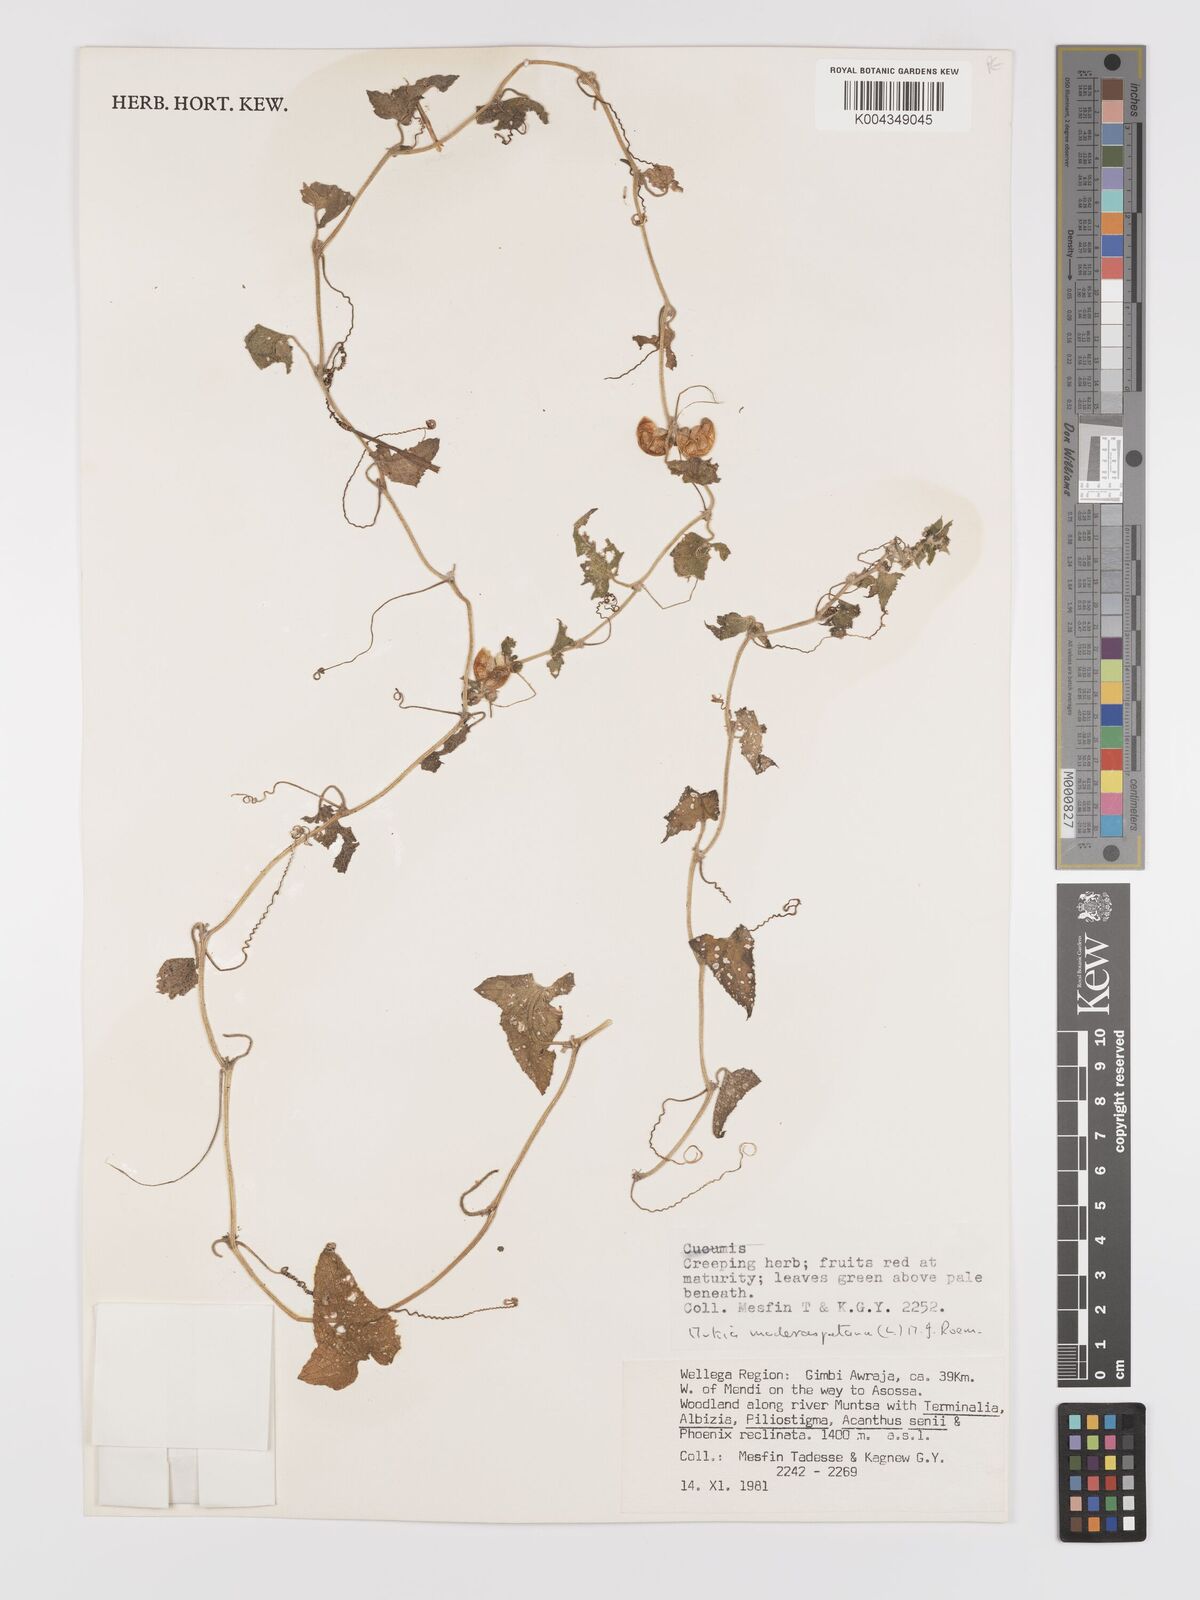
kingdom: Plantae
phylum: Tracheophyta
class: Magnoliopsida
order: Cucurbitales
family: Cucurbitaceae
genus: Cucumis
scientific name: Cucumis maderaspatanus
